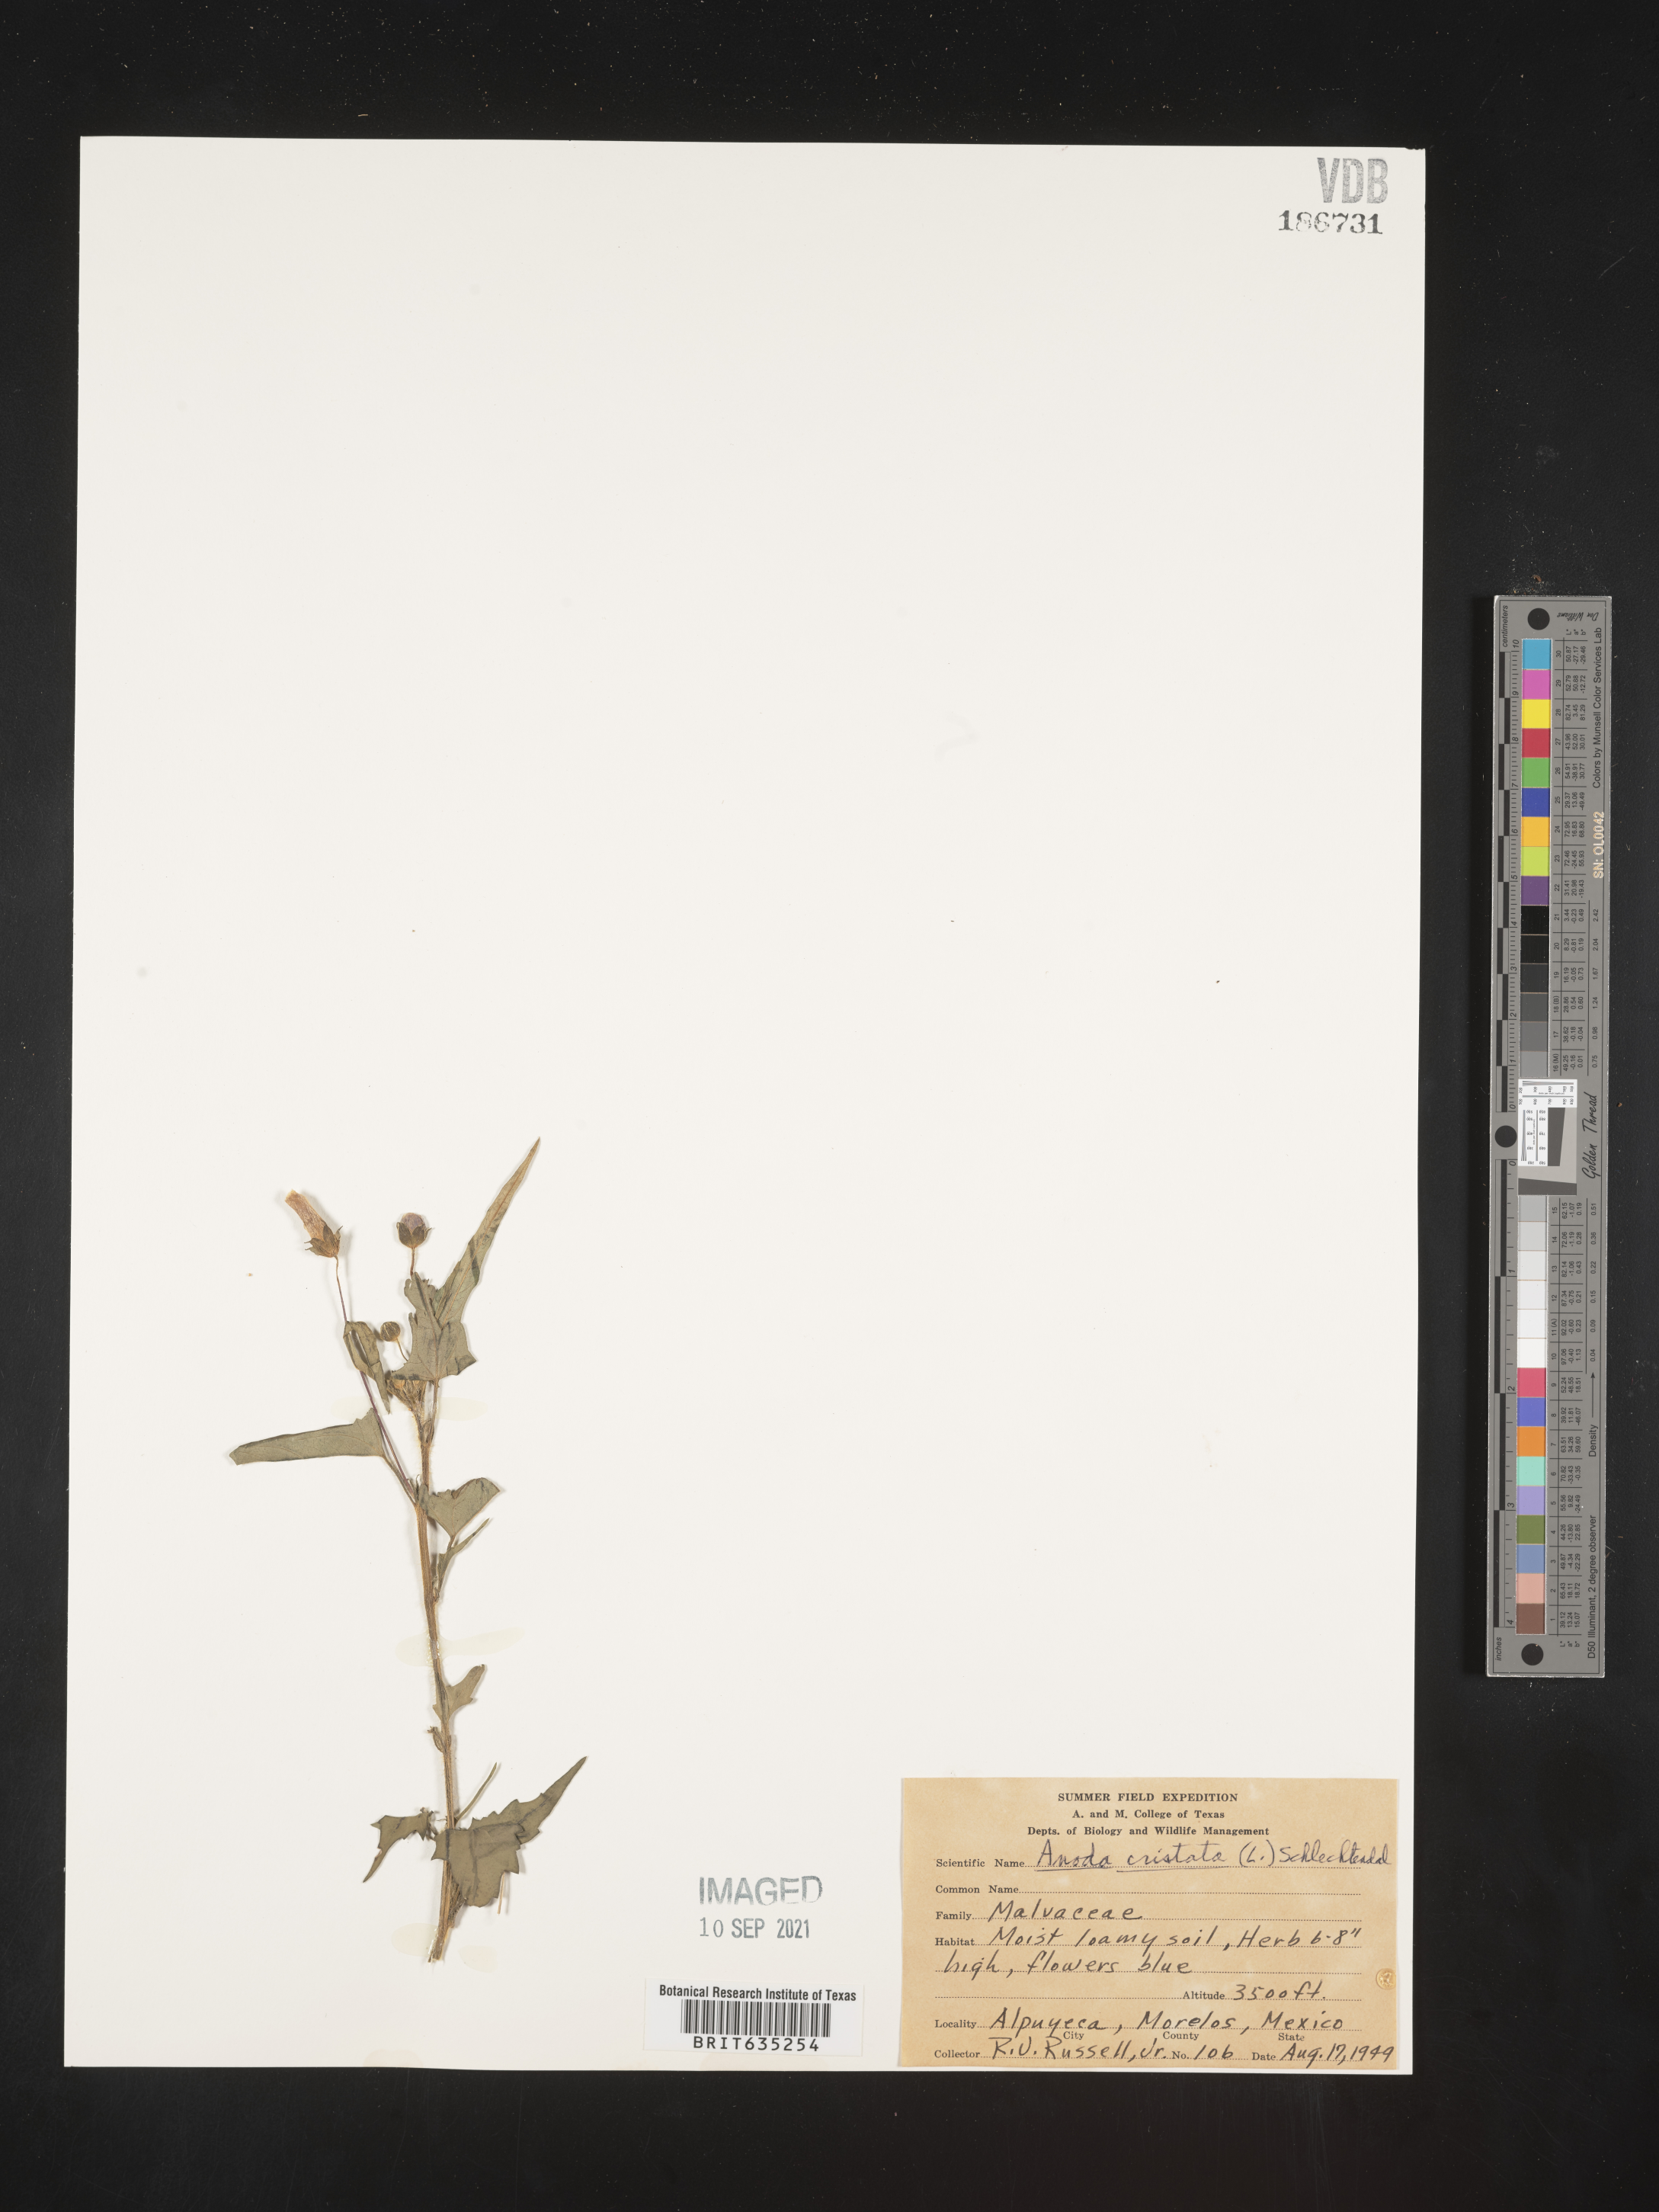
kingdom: Plantae
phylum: Tracheophyta
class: Magnoliopsida
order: Malvales
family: Malvaceae
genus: Anoda
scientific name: Anoda
